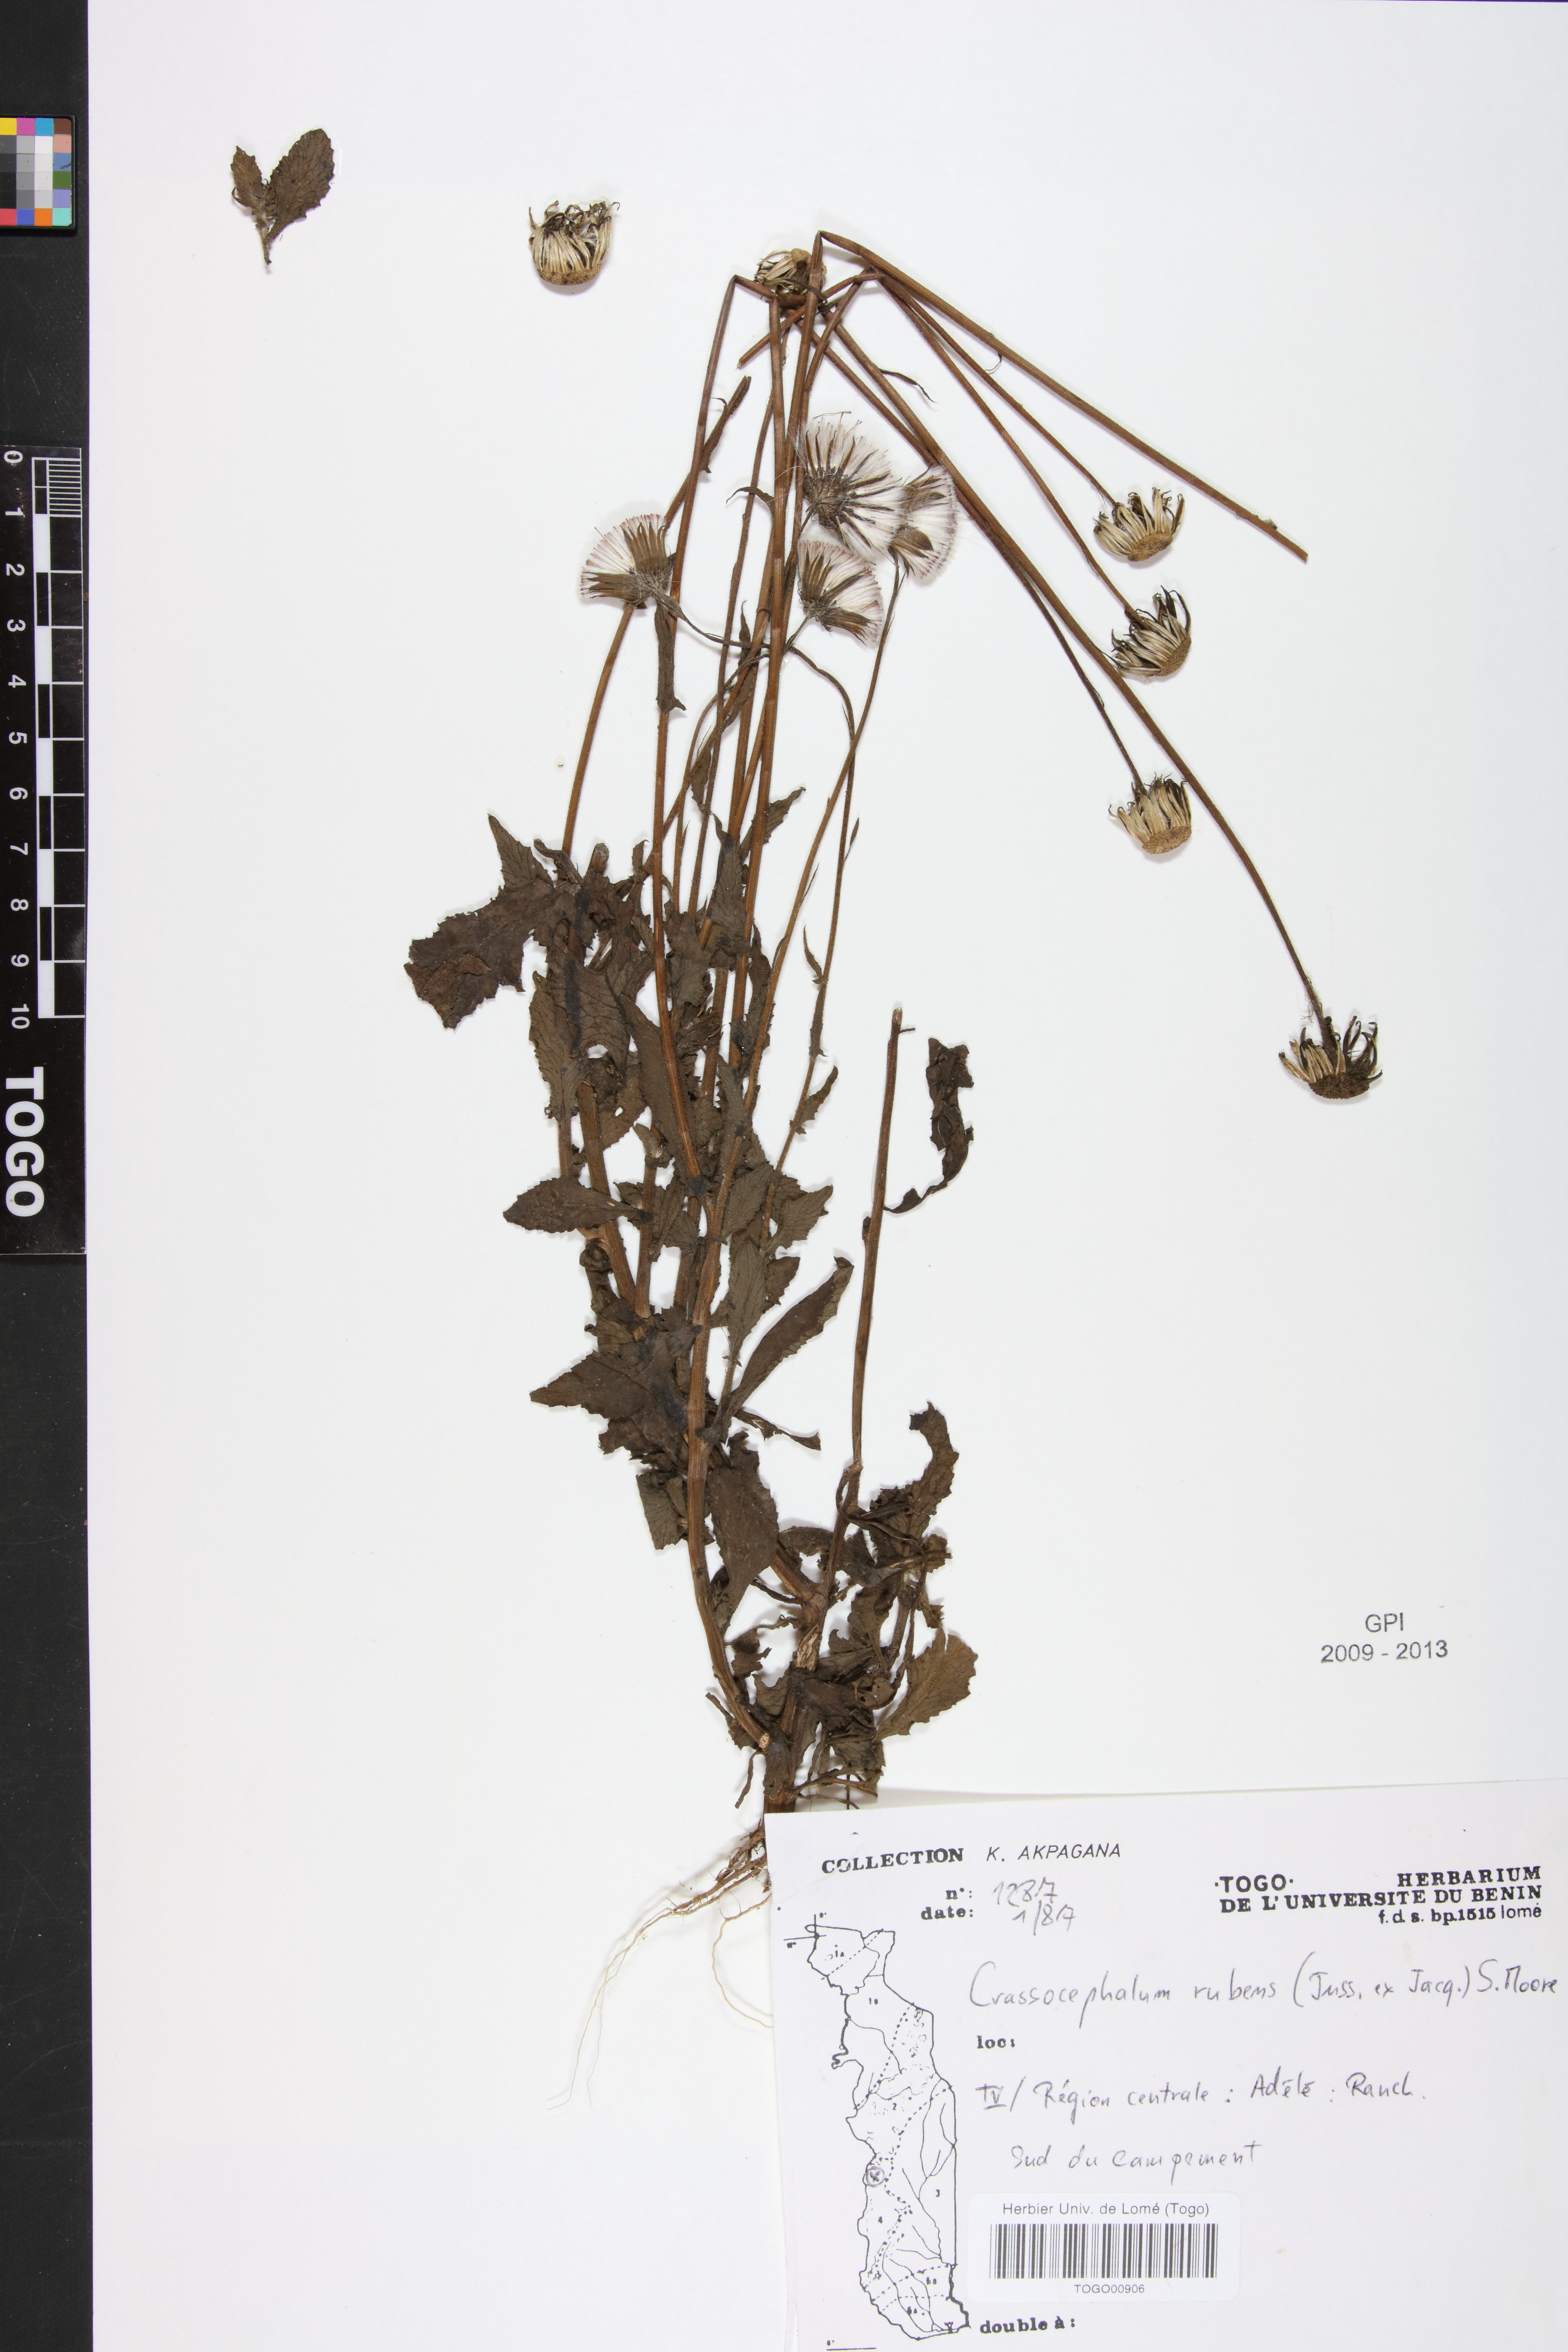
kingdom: Plantae
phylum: Tracheophyta
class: Magnoliopsida
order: Asterales
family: Asteraceae
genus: Crassocephalum
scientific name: Crassocephalum rubens
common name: Yoruban bologi
